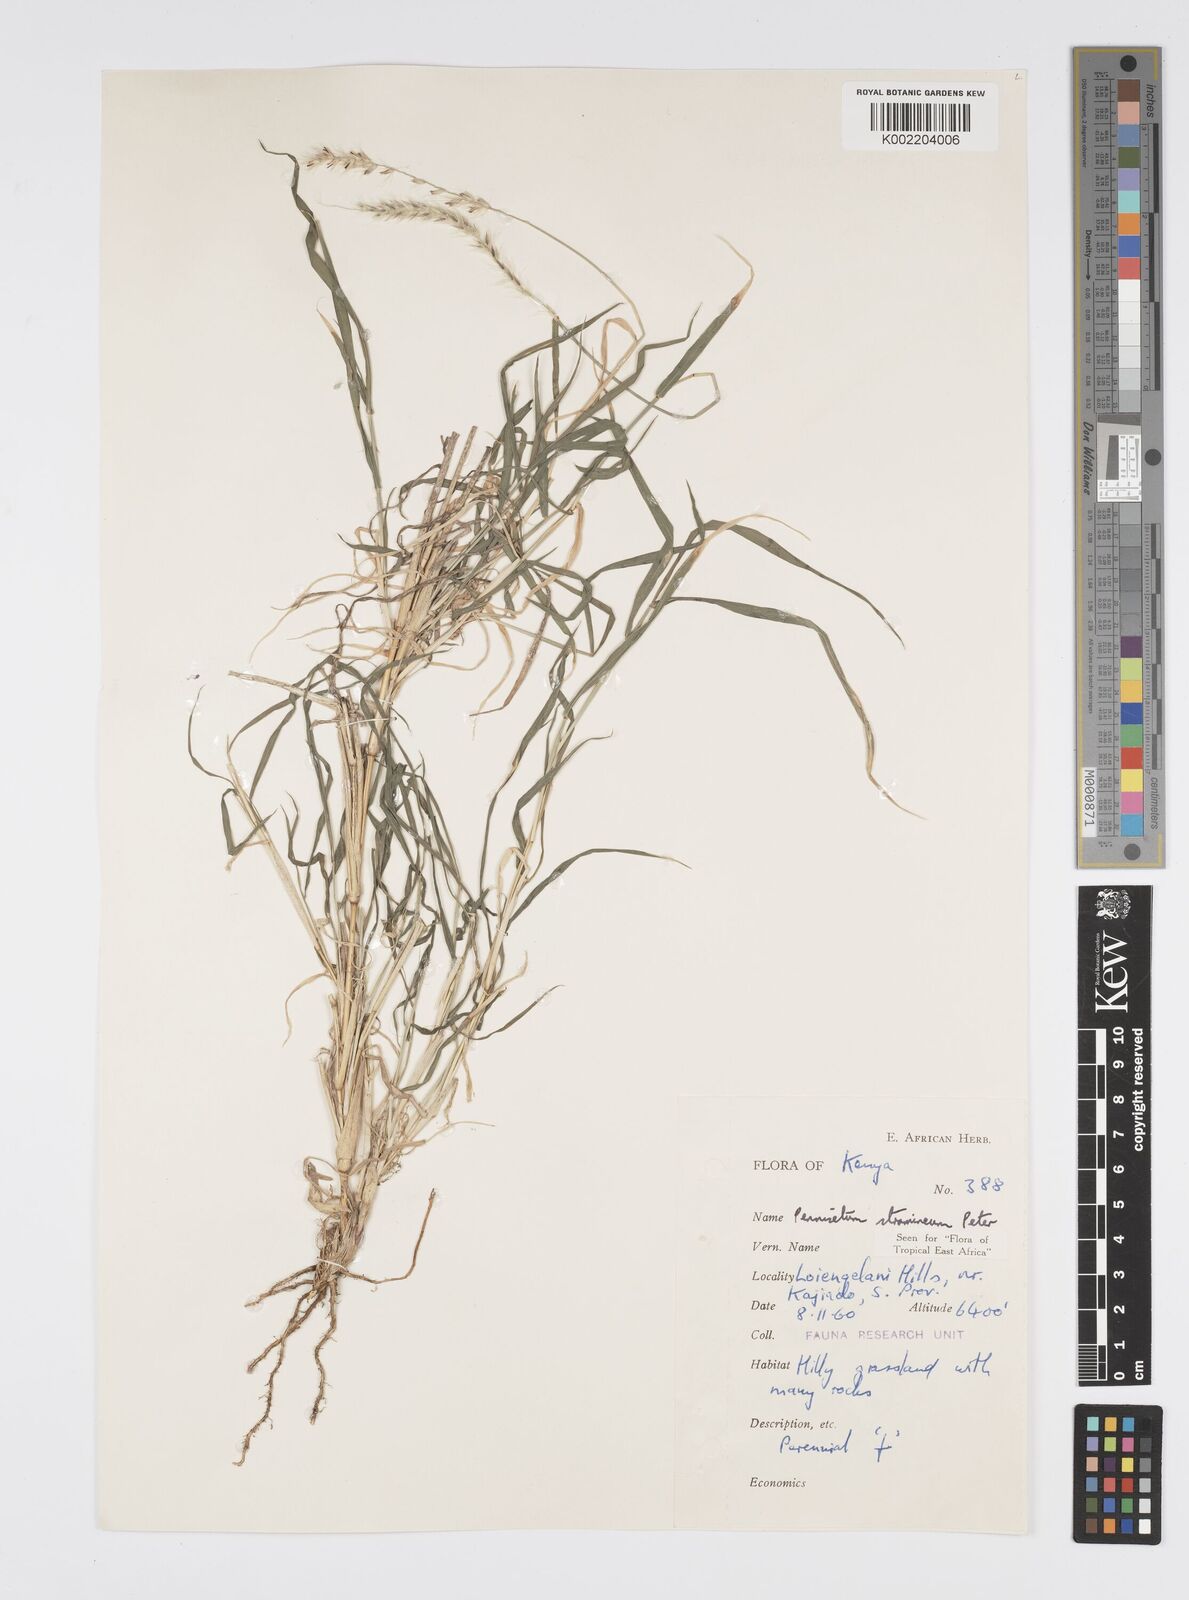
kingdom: Plantae
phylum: Tracheophyta
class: Liliopsida
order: Poales
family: Poaceae
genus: Cenchrus
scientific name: Cenchrus stramineus
